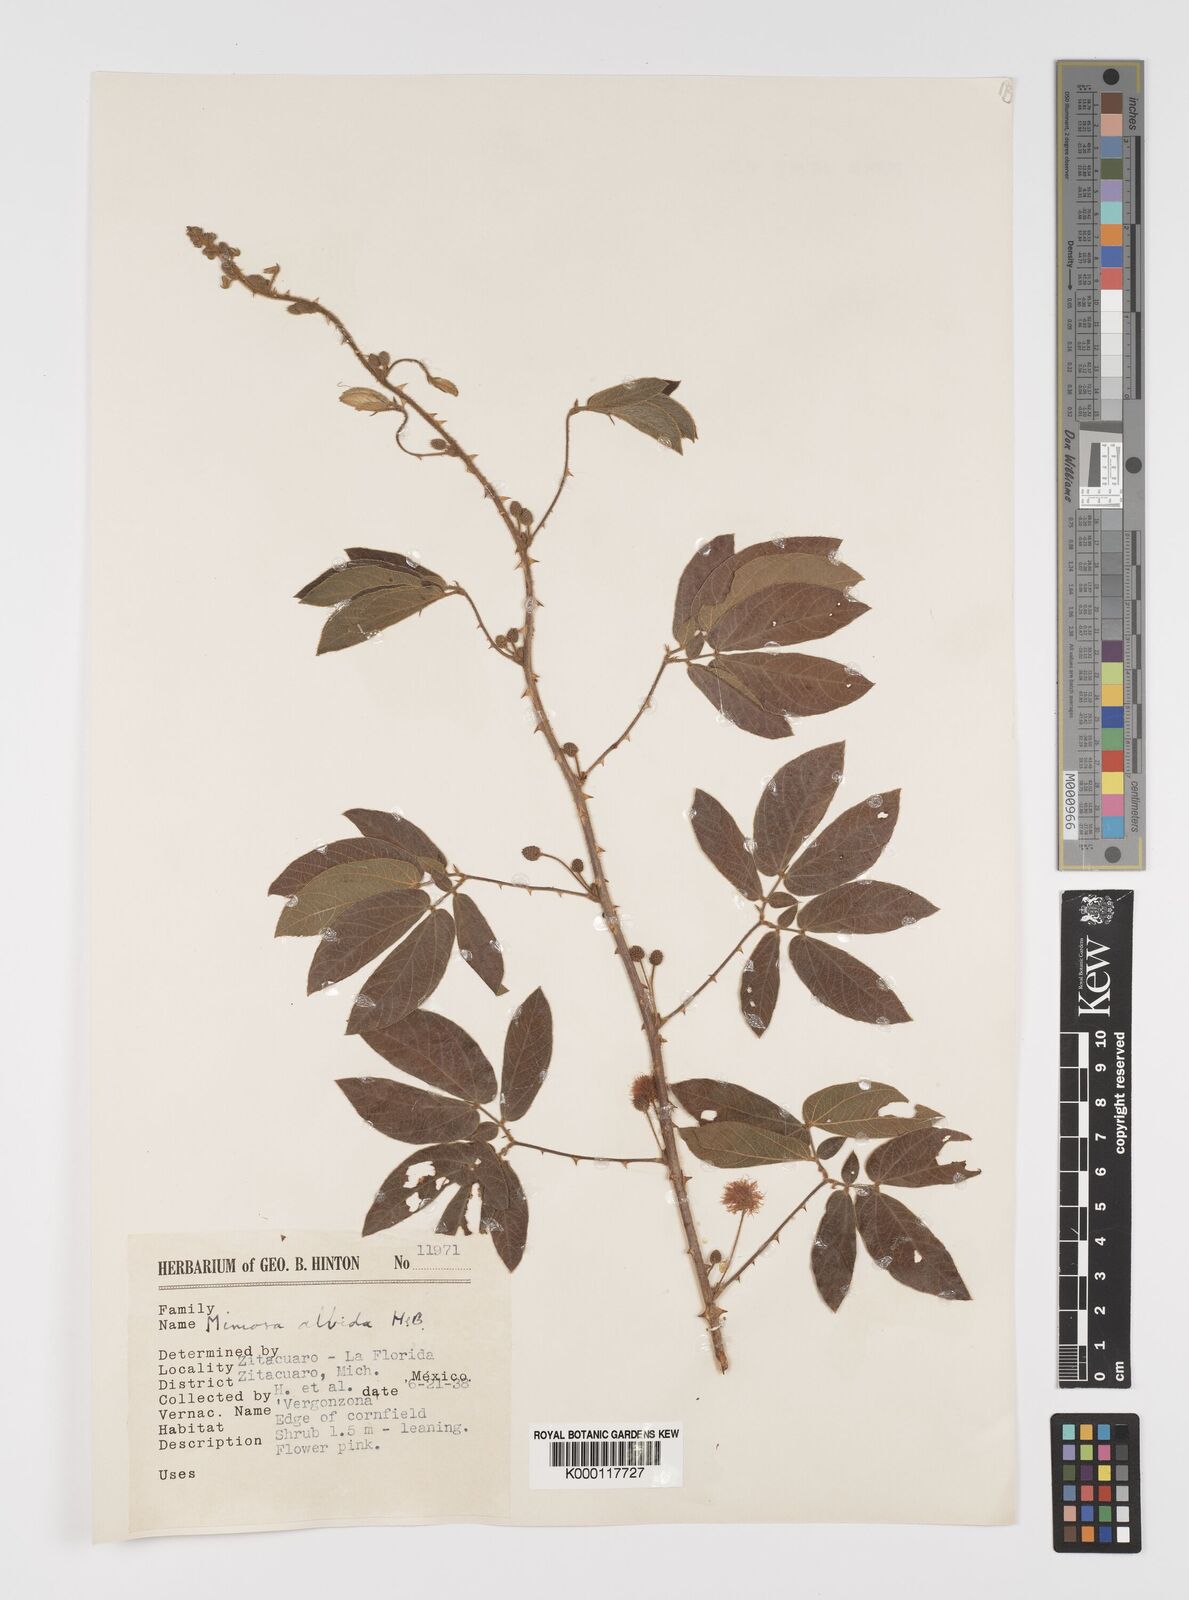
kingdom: Plantae
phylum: Tracheophyta
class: Magnoliopsida
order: Fabales
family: Fabaceae
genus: Mimosa
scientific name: Mimosa albida
